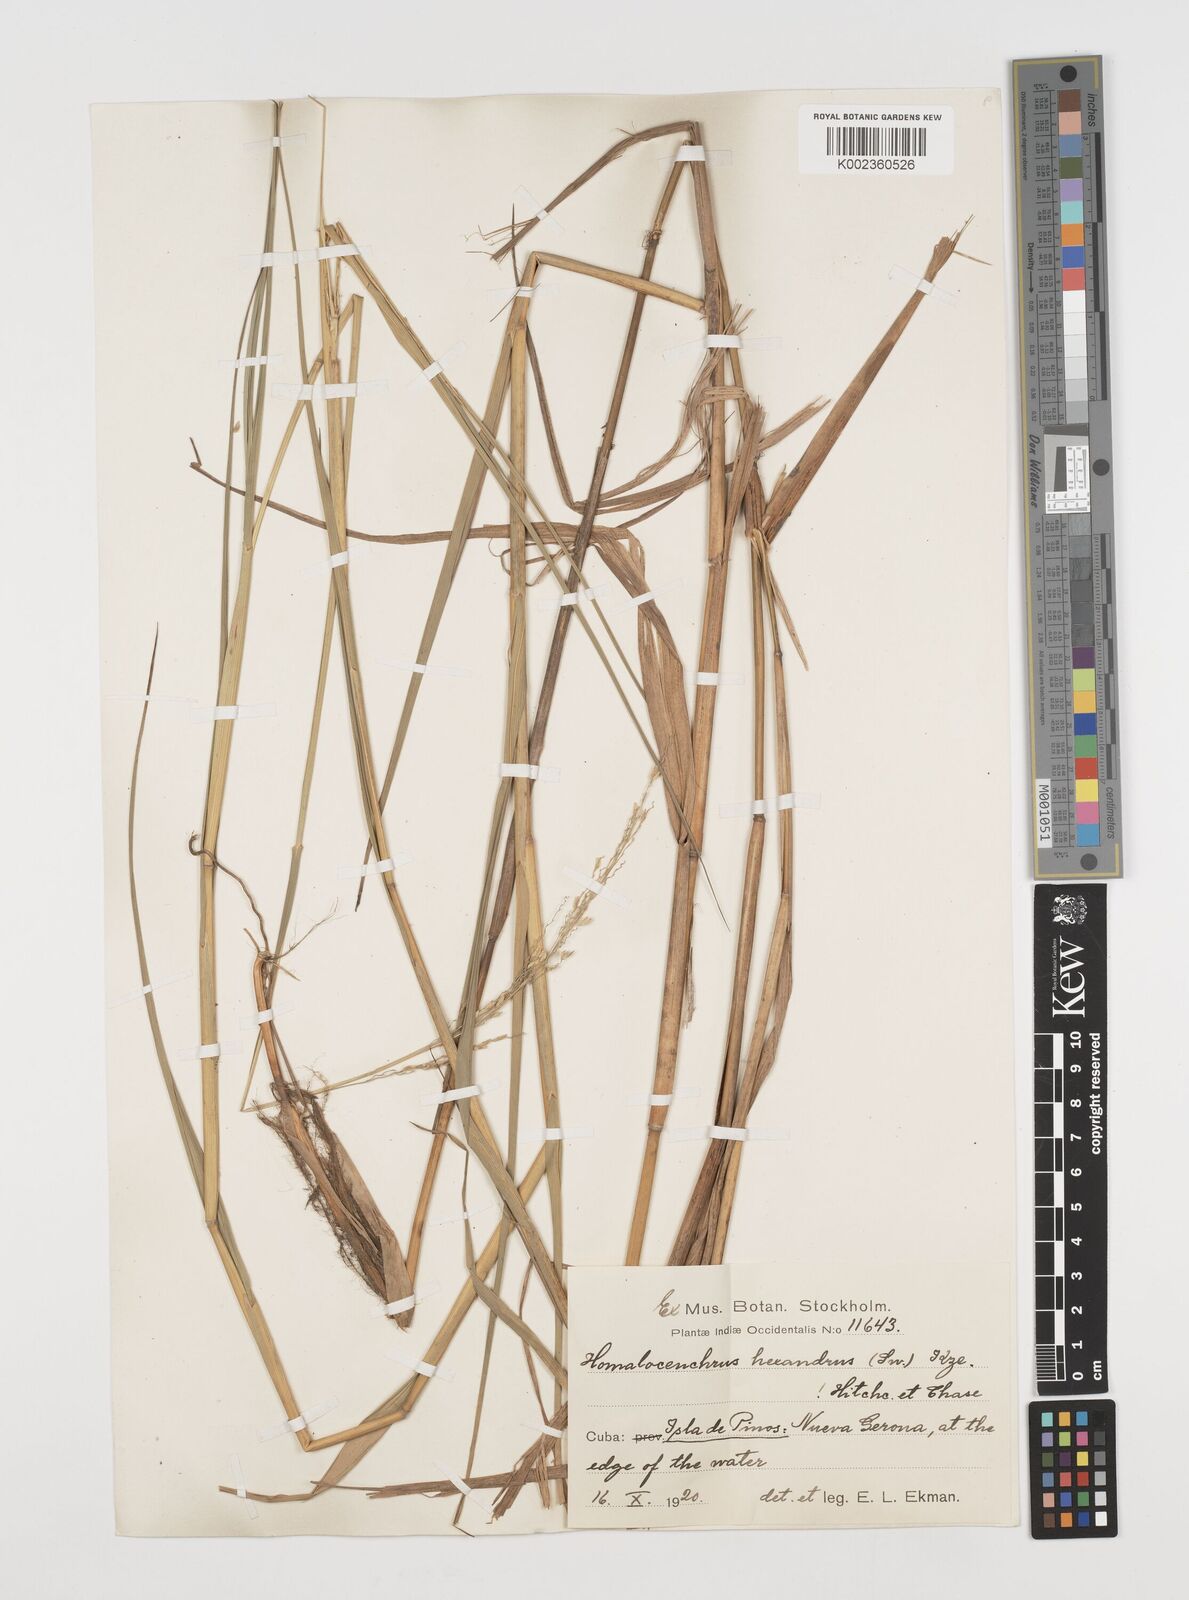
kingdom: Plantae
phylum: Tracheophyta
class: Liliopsida
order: Poales
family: Poaceae
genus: Leersia
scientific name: Leersia hexandra
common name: Southern cut grass
